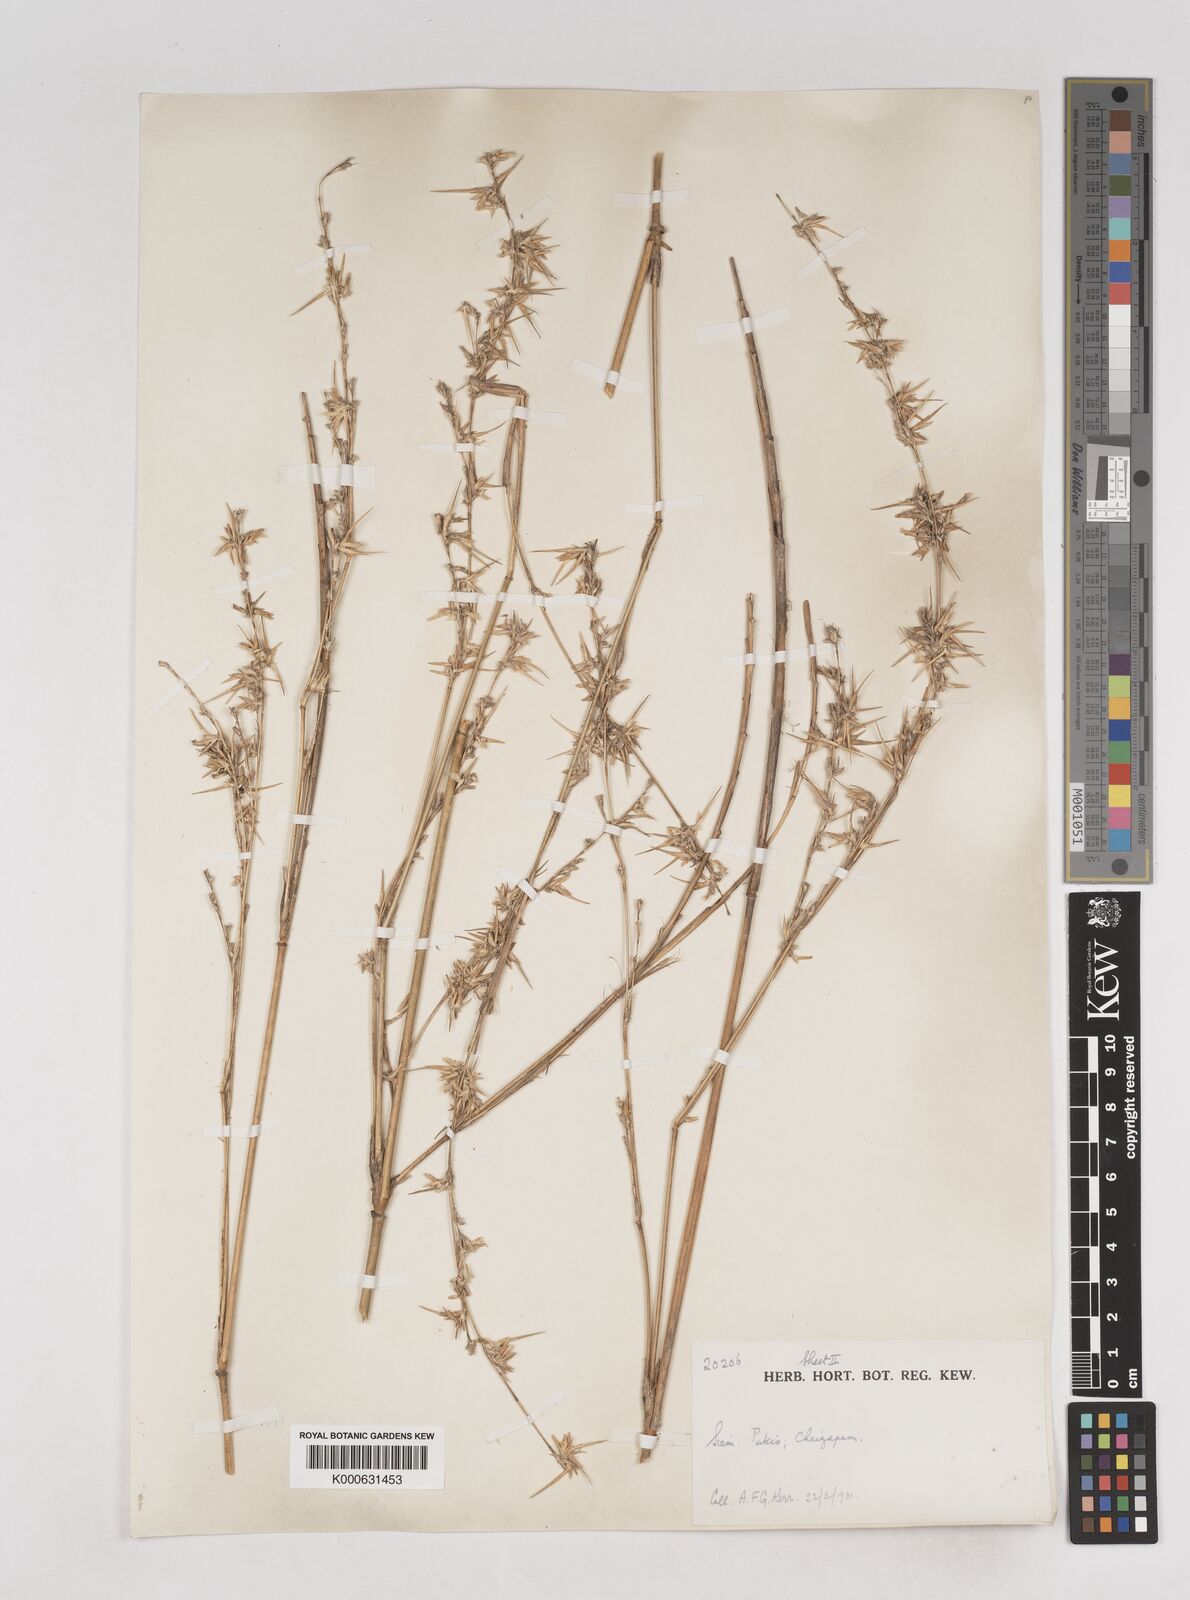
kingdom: Plantae
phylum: Tracheophyta
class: Liliopsida
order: Poales
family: Poaceae
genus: Schizostachyum
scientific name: Schizostachyum
